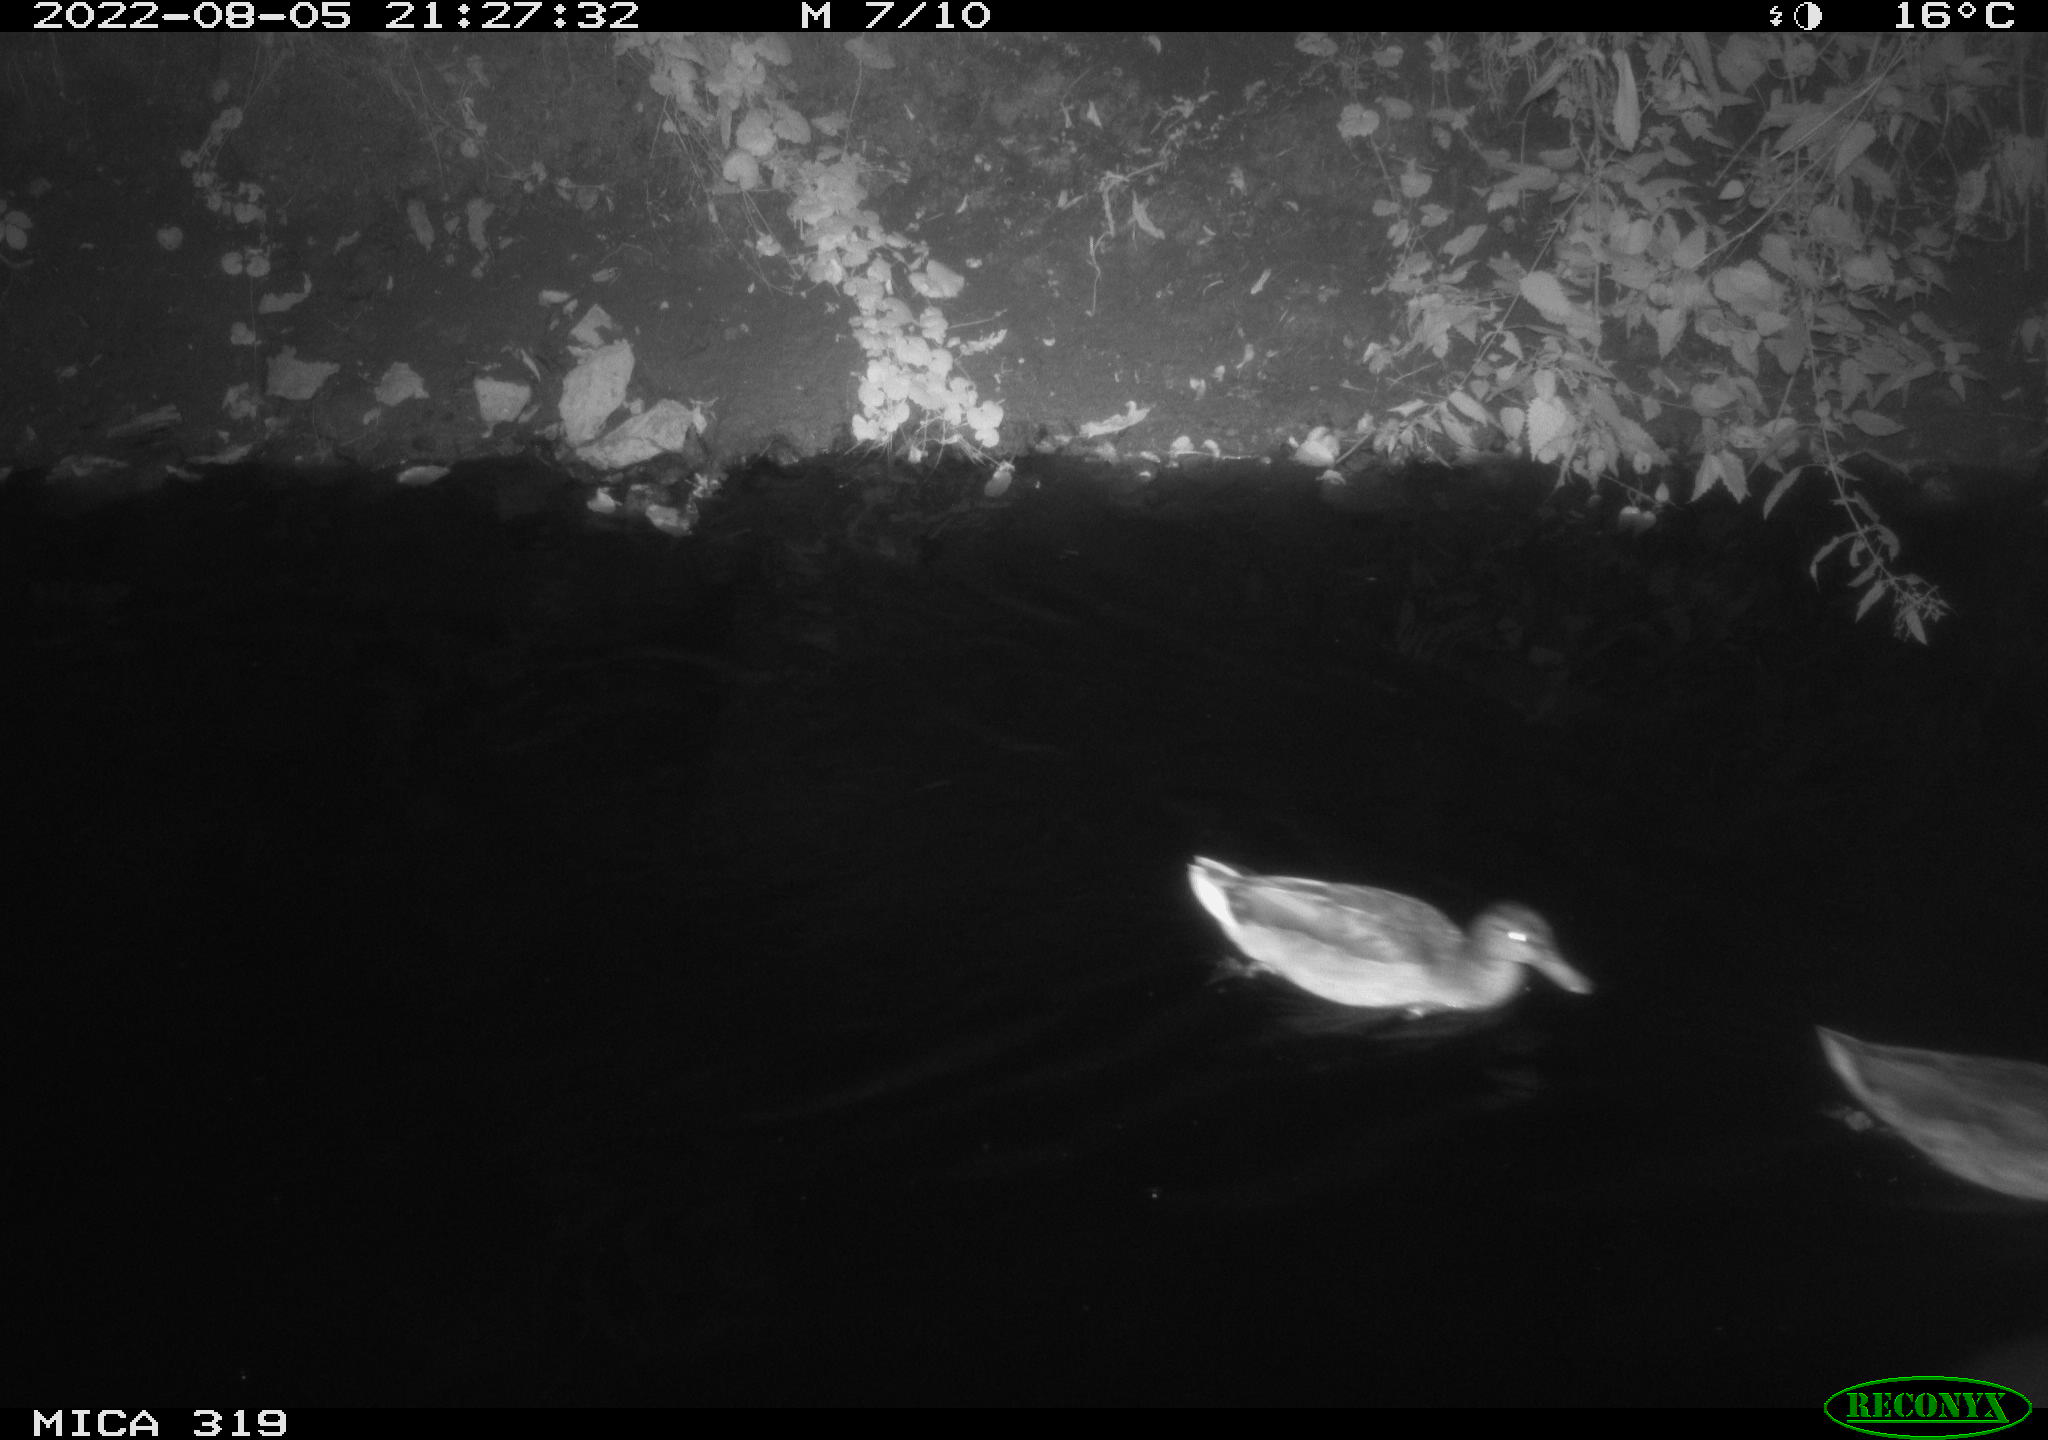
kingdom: Animalia
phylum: Chordata
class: Aves
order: Anseriformes
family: Anatidae
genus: Anas
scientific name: Anas
